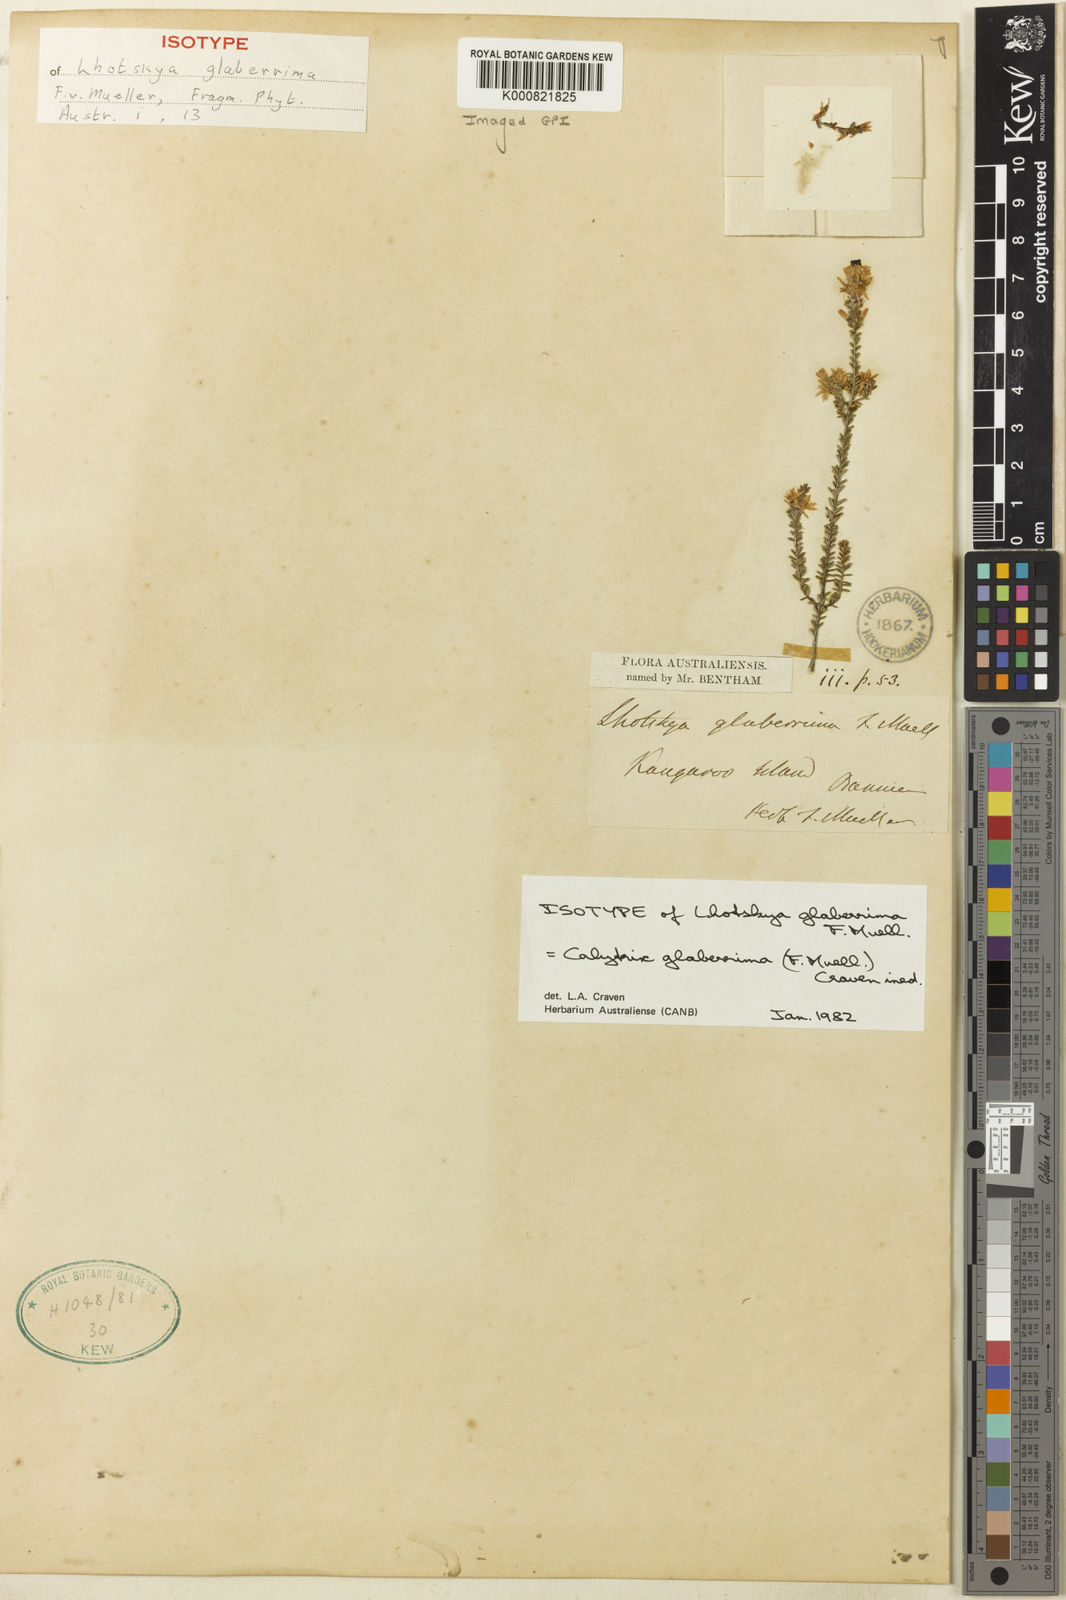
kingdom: Plantae
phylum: Tracheophyta
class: Magnoliopsida
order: Myrtales
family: Myrtaceae
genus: Calytrix
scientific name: Calytrix glaberrima
